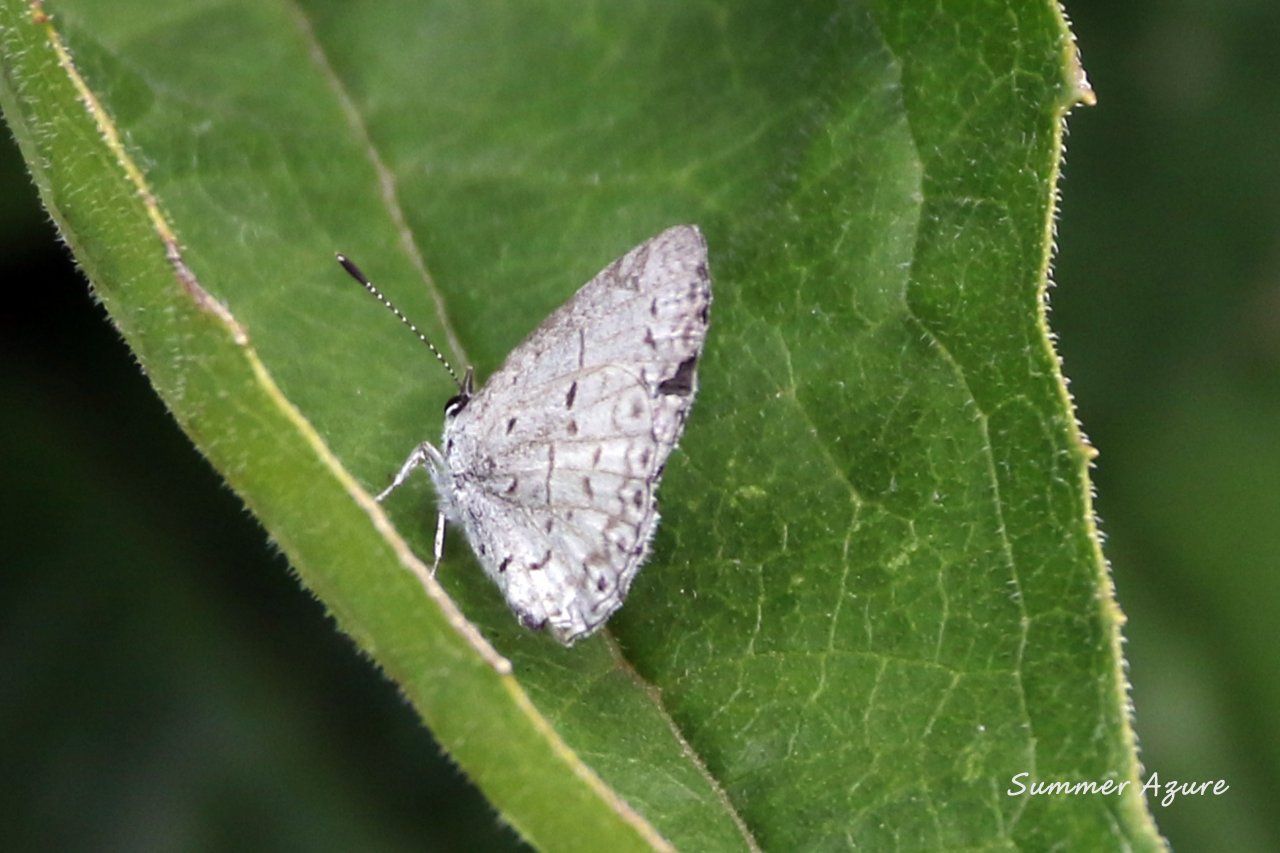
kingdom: Animalia
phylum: Arthropoda
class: Insecta
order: Lepidoptera
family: Lycaenidae
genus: Celastrina
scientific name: Celastrina
